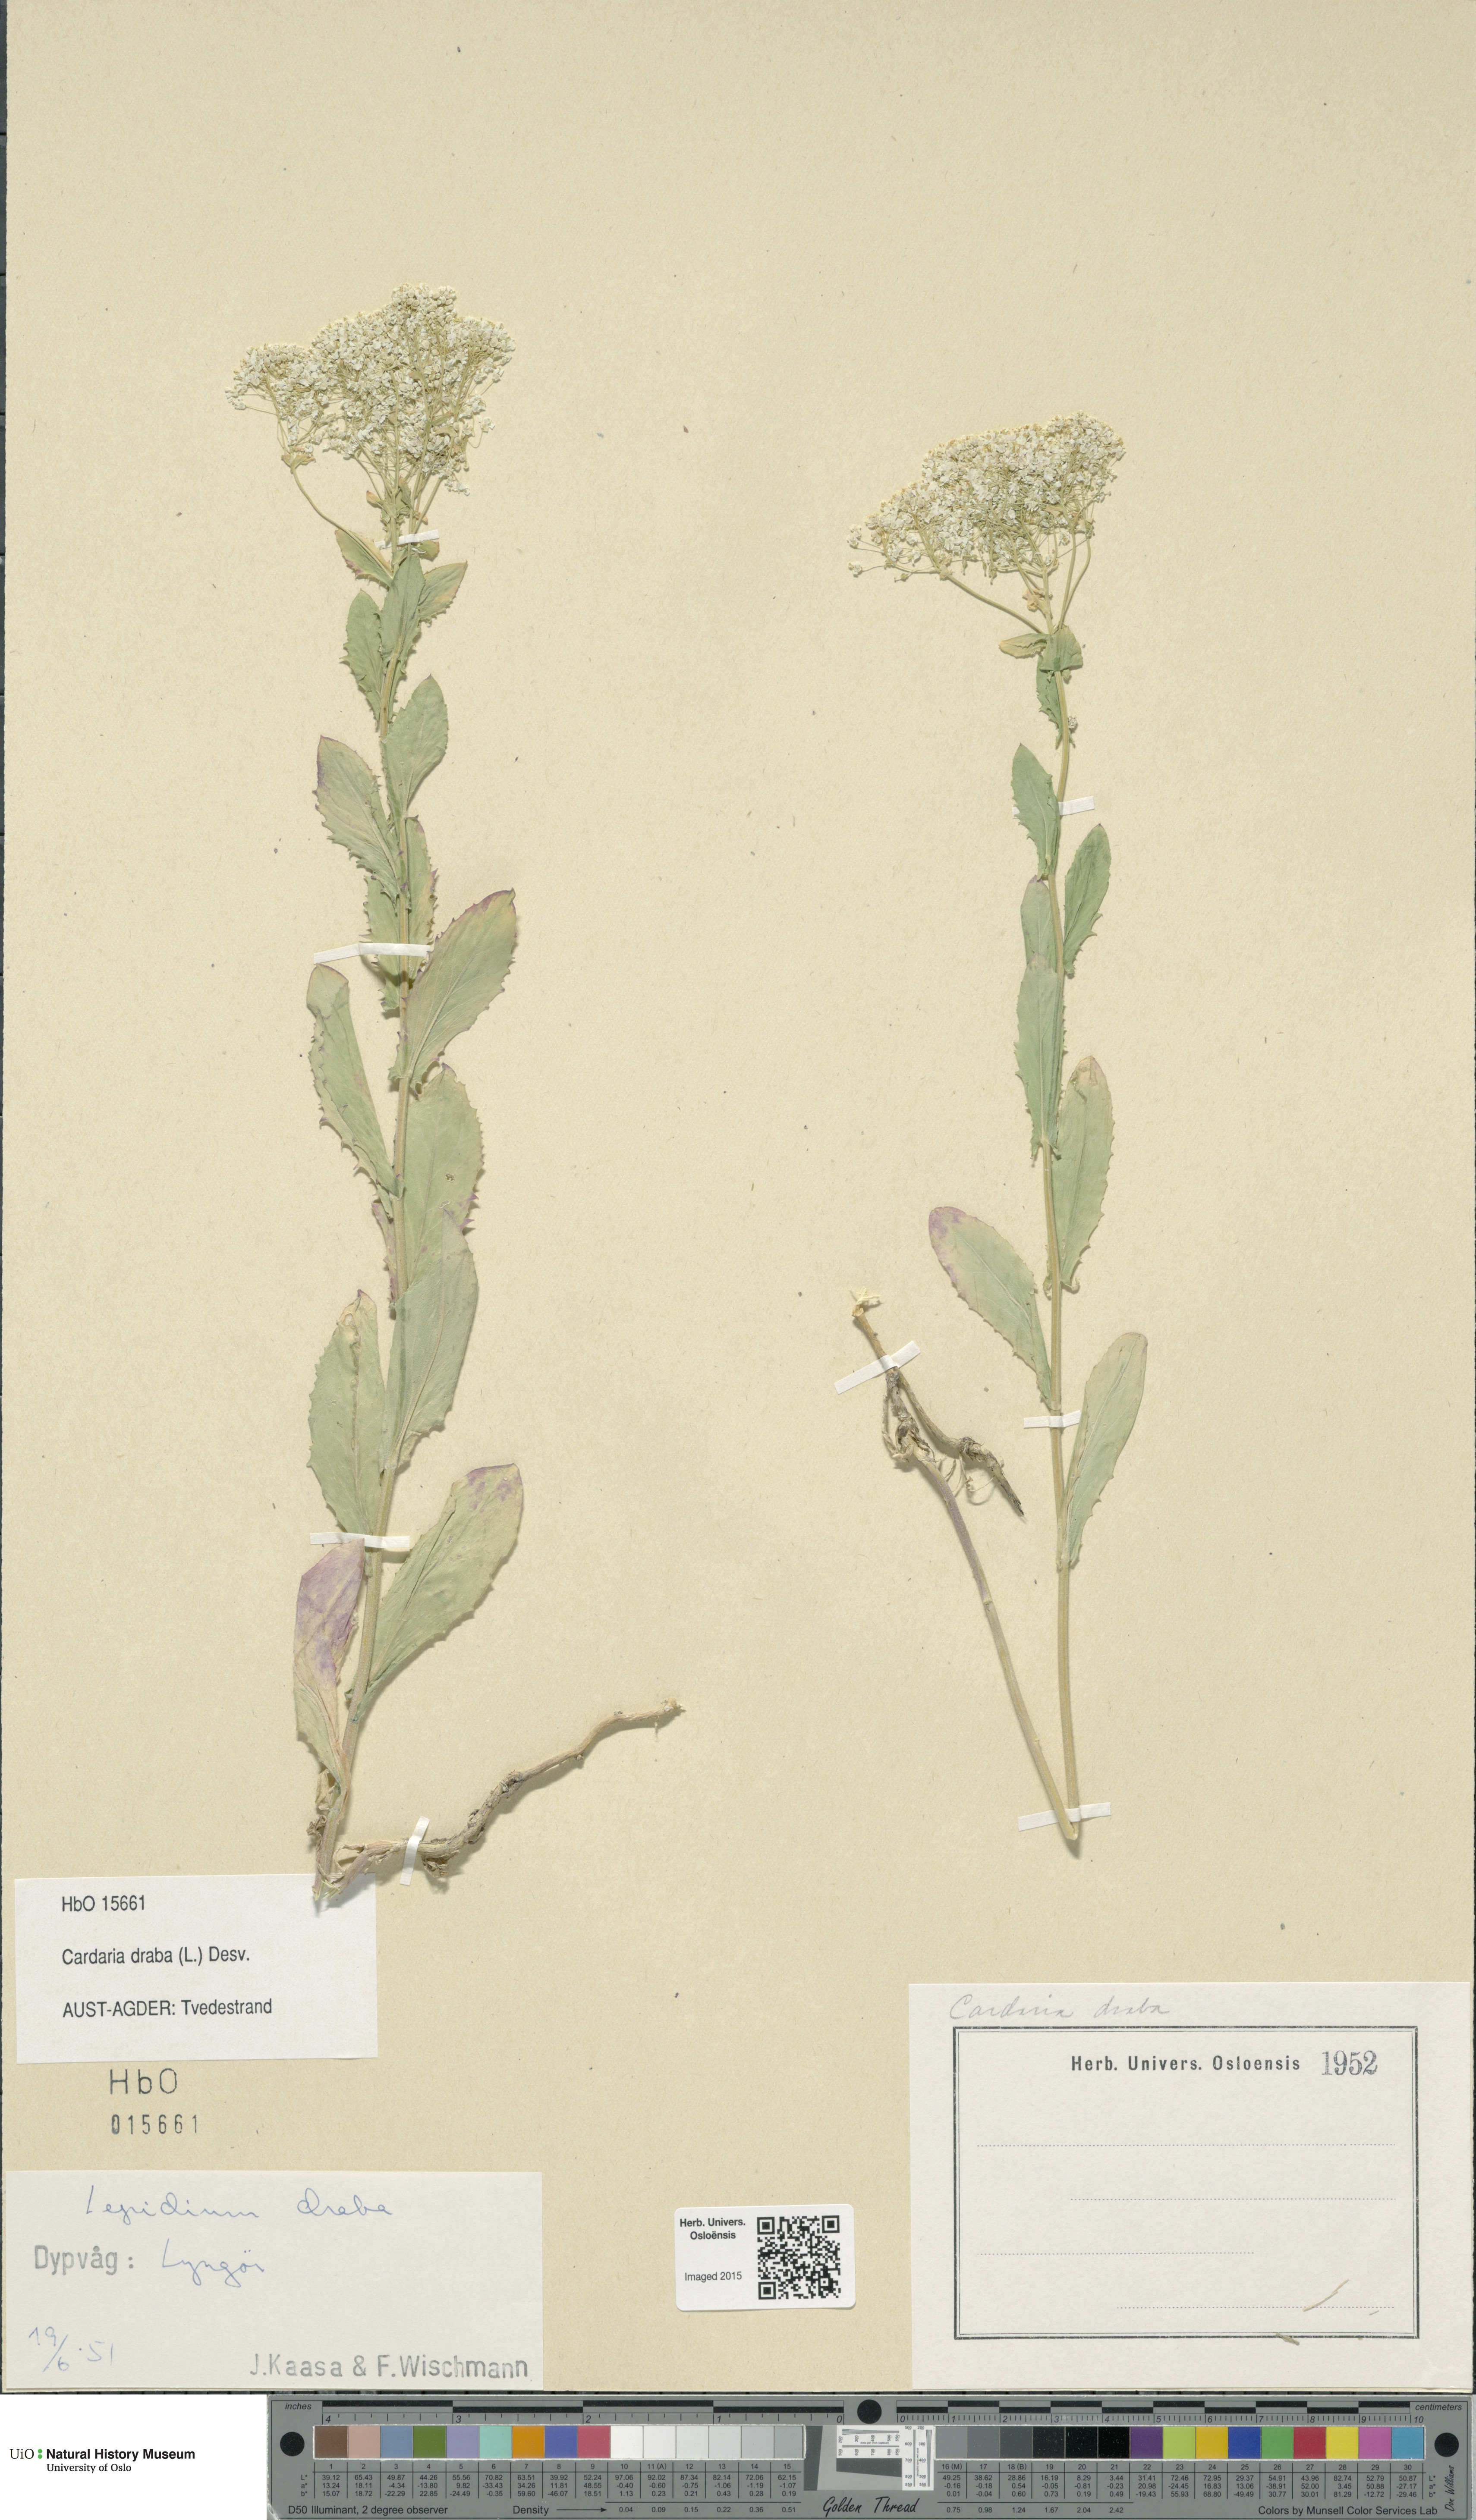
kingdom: Plantae
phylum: Tracheophyta
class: Magnoliopsida
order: Brassicales
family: Brassicaceae
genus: Lepidium
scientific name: Lepidium draba
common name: Hoary cress
